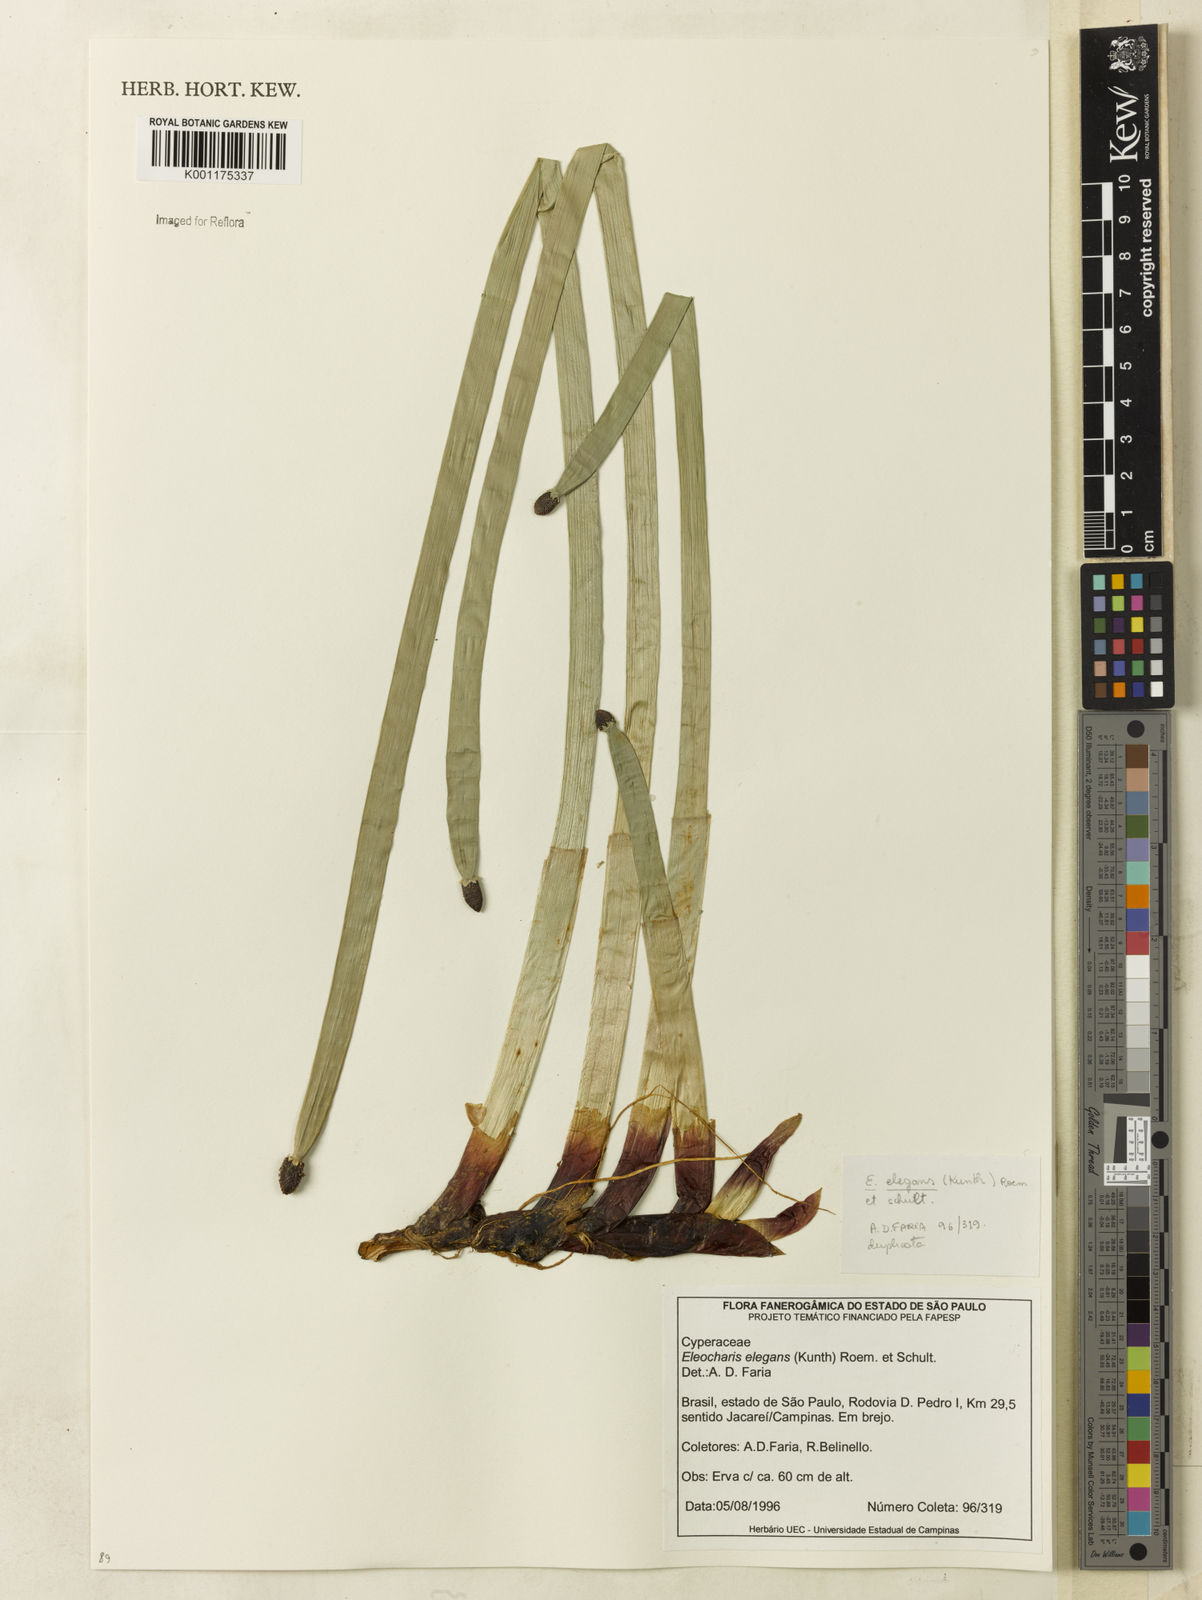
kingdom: Plantae
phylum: Tracheophyta
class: Liliopsida
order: Poales
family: Cyperaceae
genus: Eleocharis
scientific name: Eleocharis elegans
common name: Elegant spike-rush
